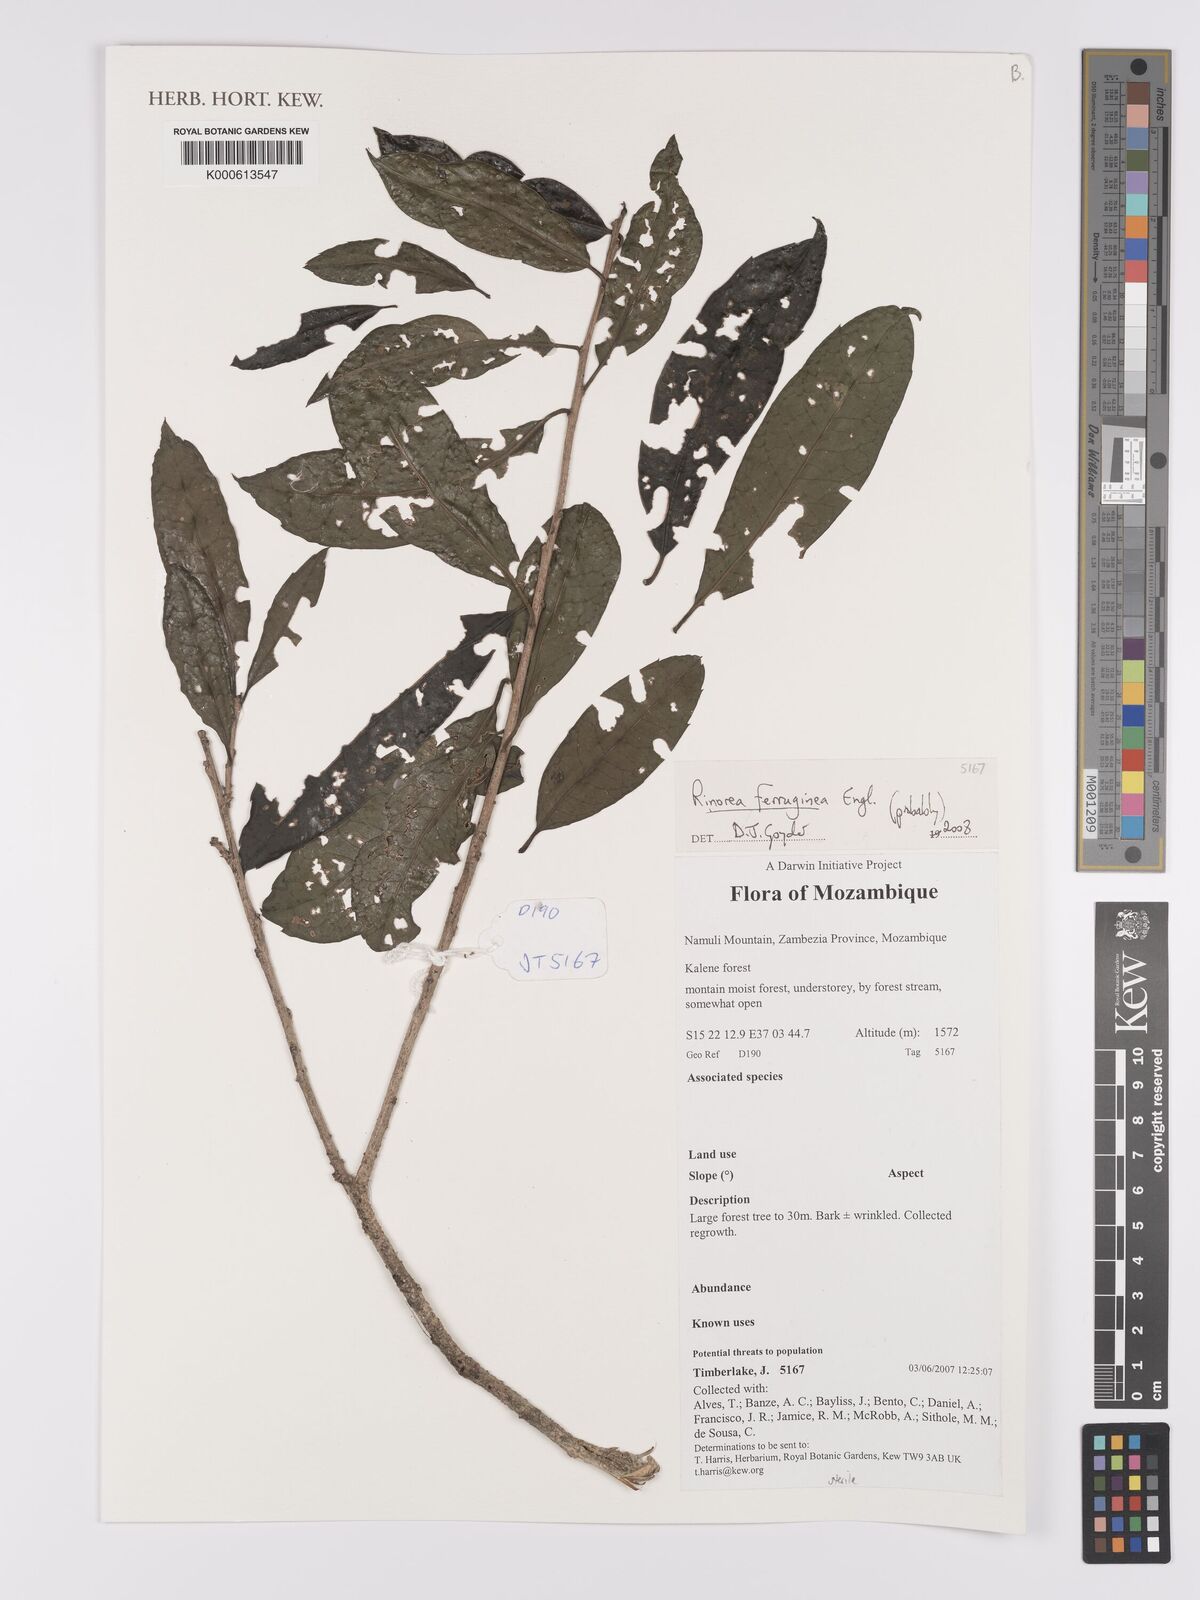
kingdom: Plantae
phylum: Tracheophyta
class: Magnoliopsida
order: Malpighiales
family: Violaceae
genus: Rinorea
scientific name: Rinorea ferruginea
